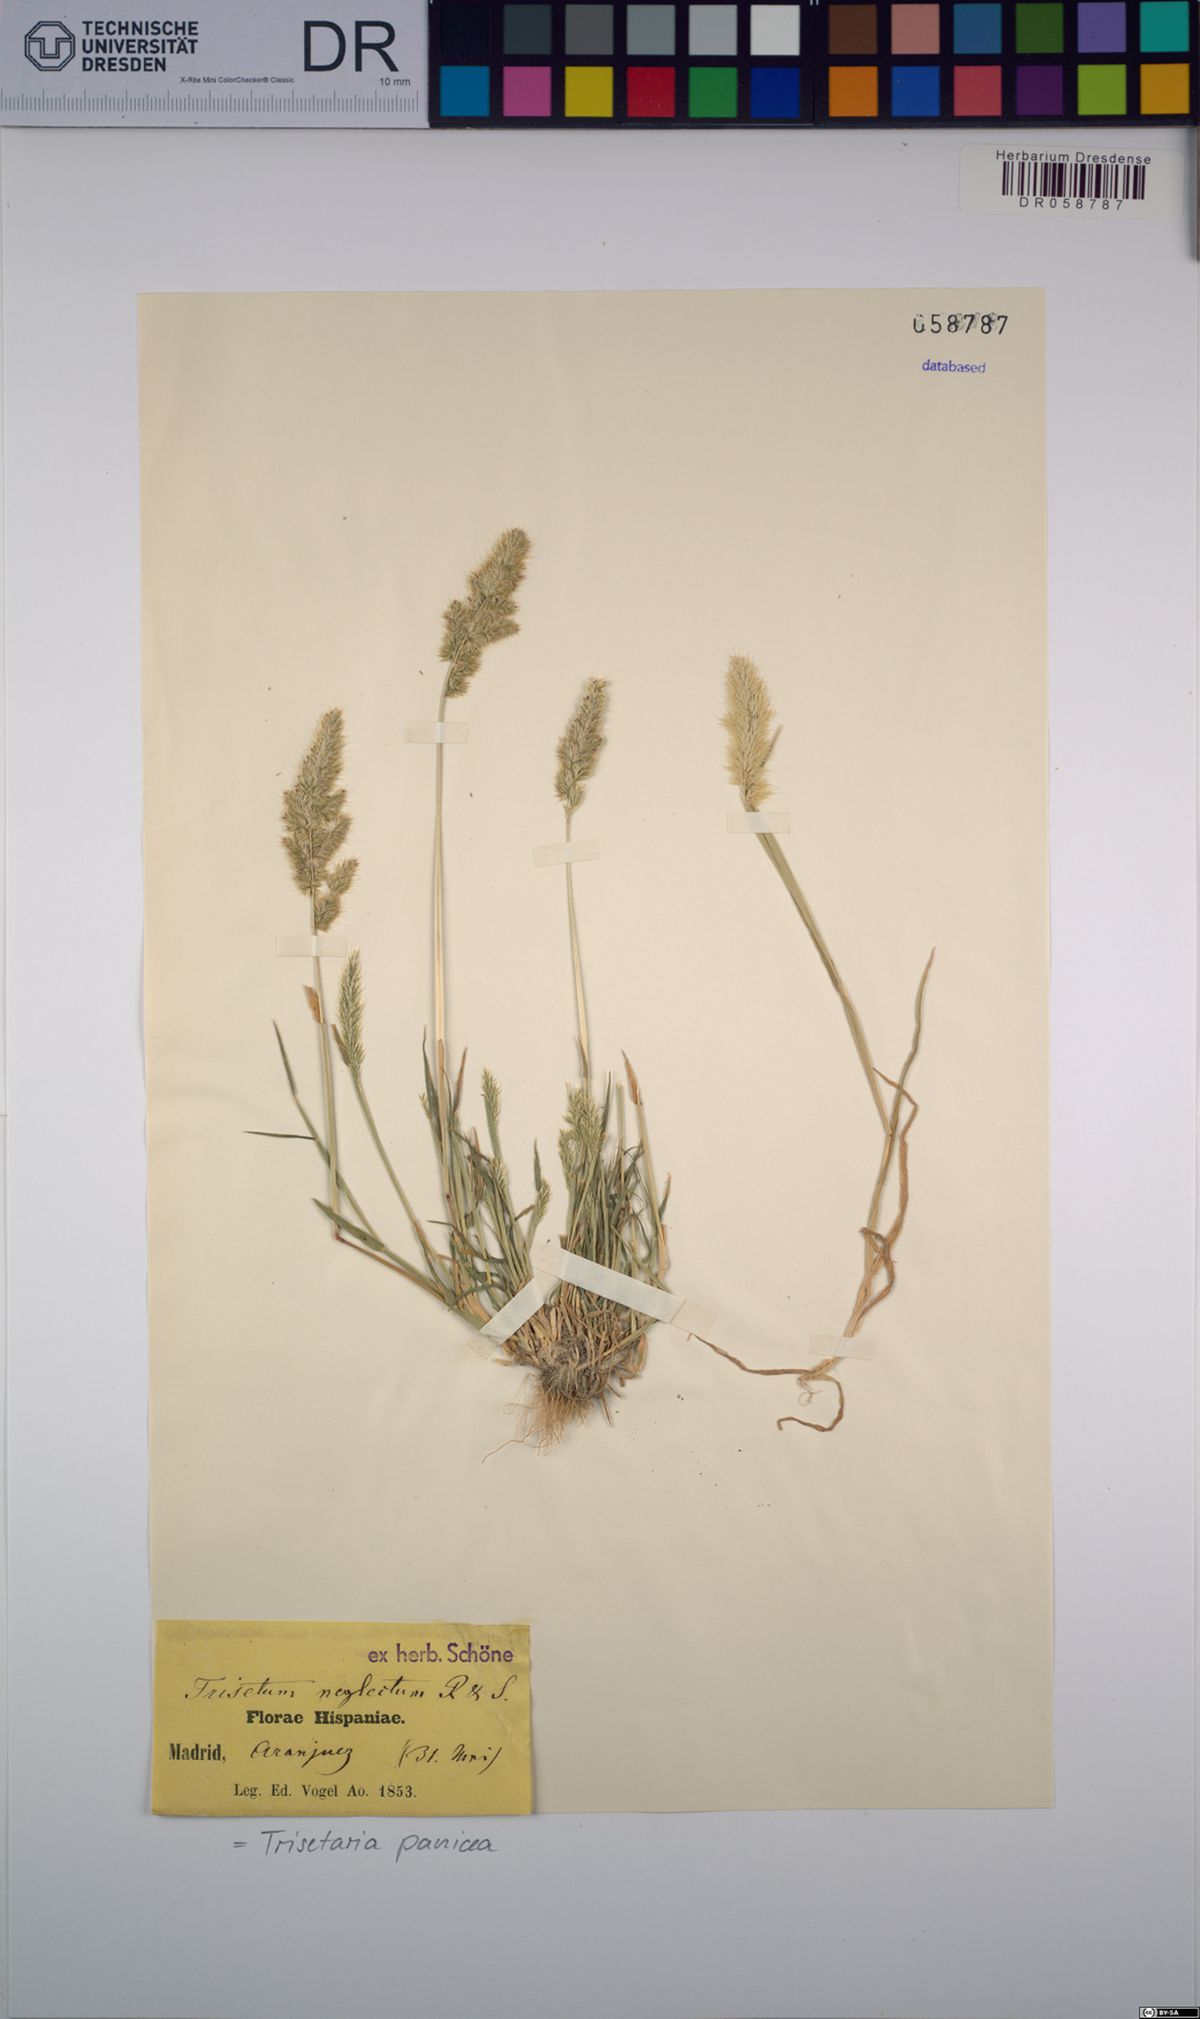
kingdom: Plantae
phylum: Tracheophyta
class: Liliopsida
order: Poales
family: Poaceae
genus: Trisetaria
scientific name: Trisetaria panicea
